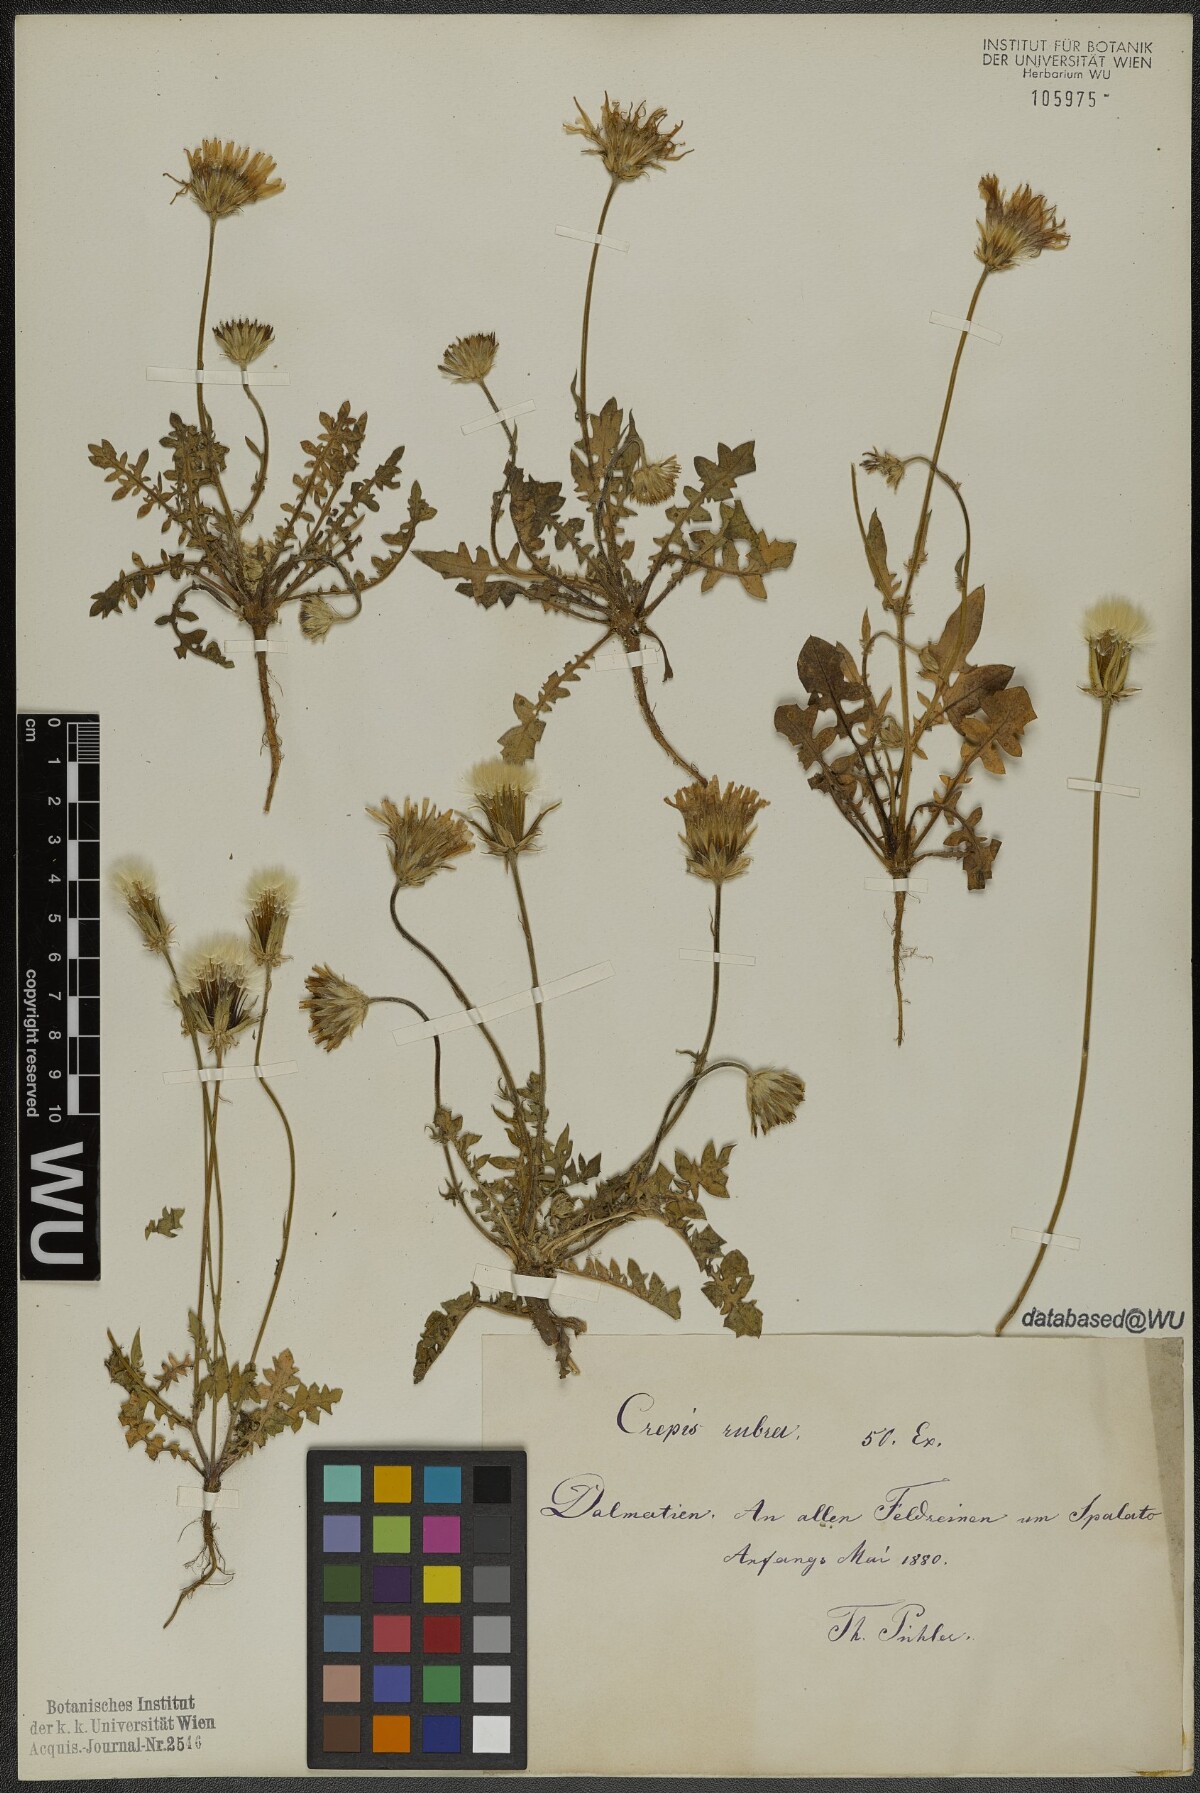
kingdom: Plantae
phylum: Tracheophyta
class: Magnoliopsida
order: Asterales
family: Asteraceae
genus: Crepis
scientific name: Crepis rubra
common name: Pink hawk's-beard
